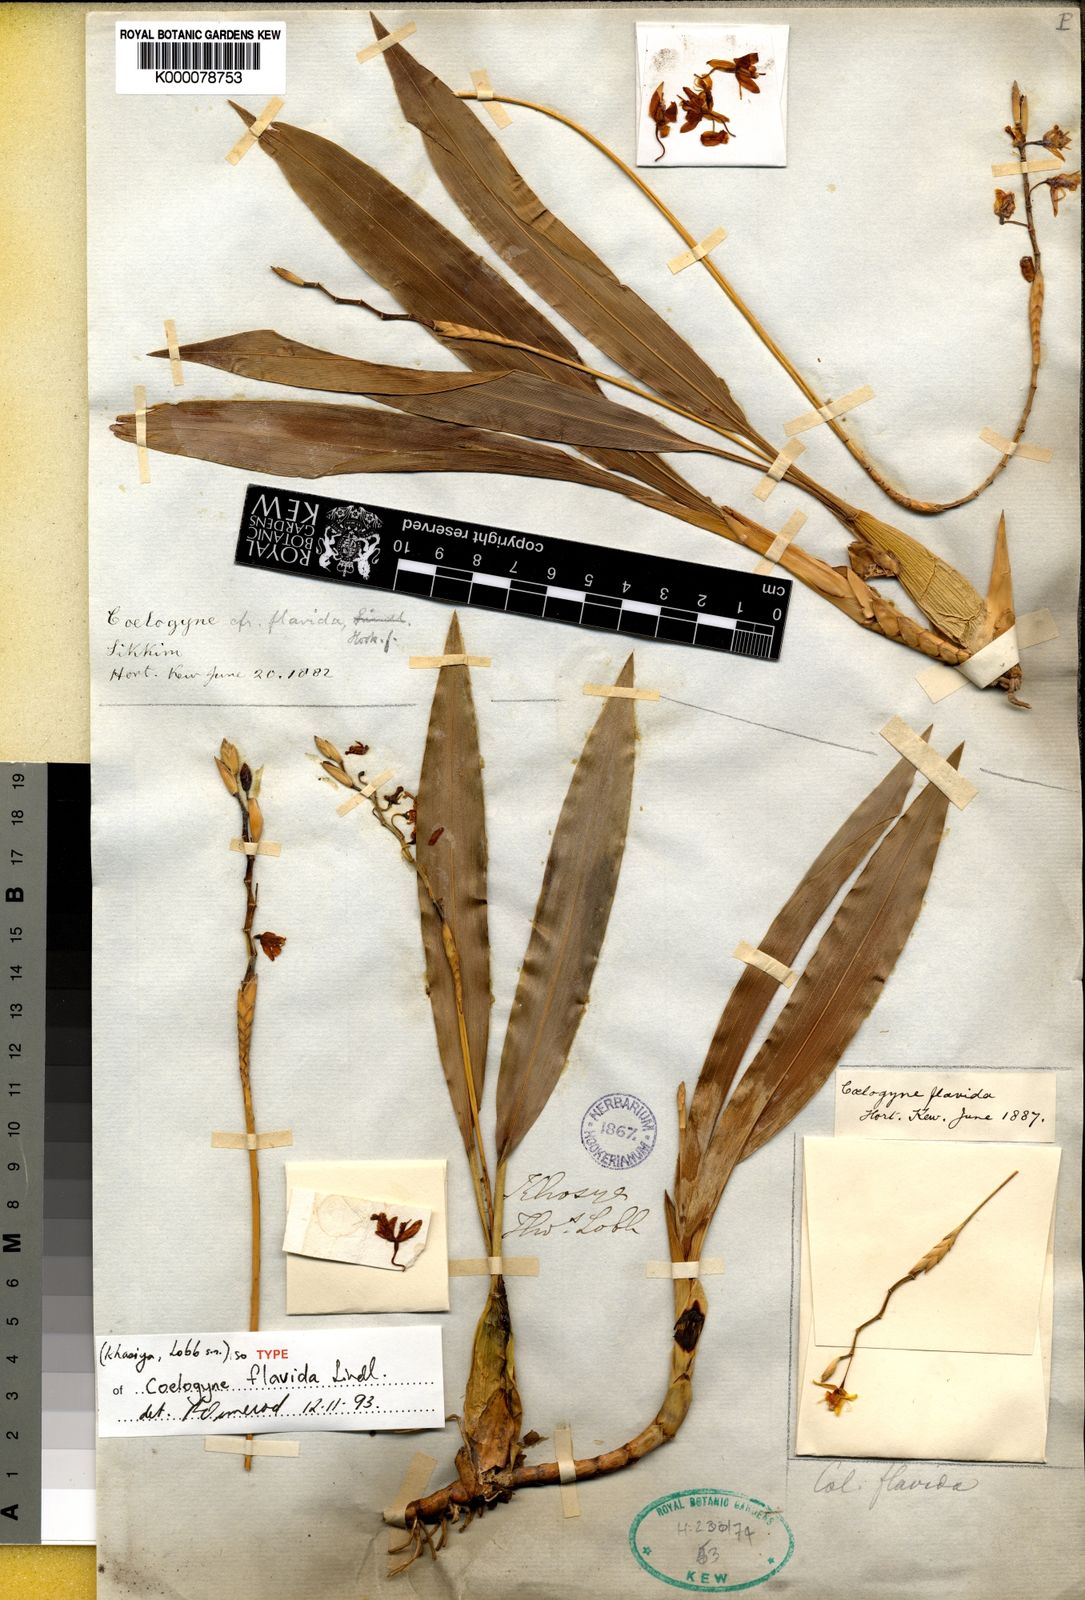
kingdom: Plantae
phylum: Tracheophyta
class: Liliopsida
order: Asparagales
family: Orchidaceae
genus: Coelogyne
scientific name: Coelogyne prolifera
